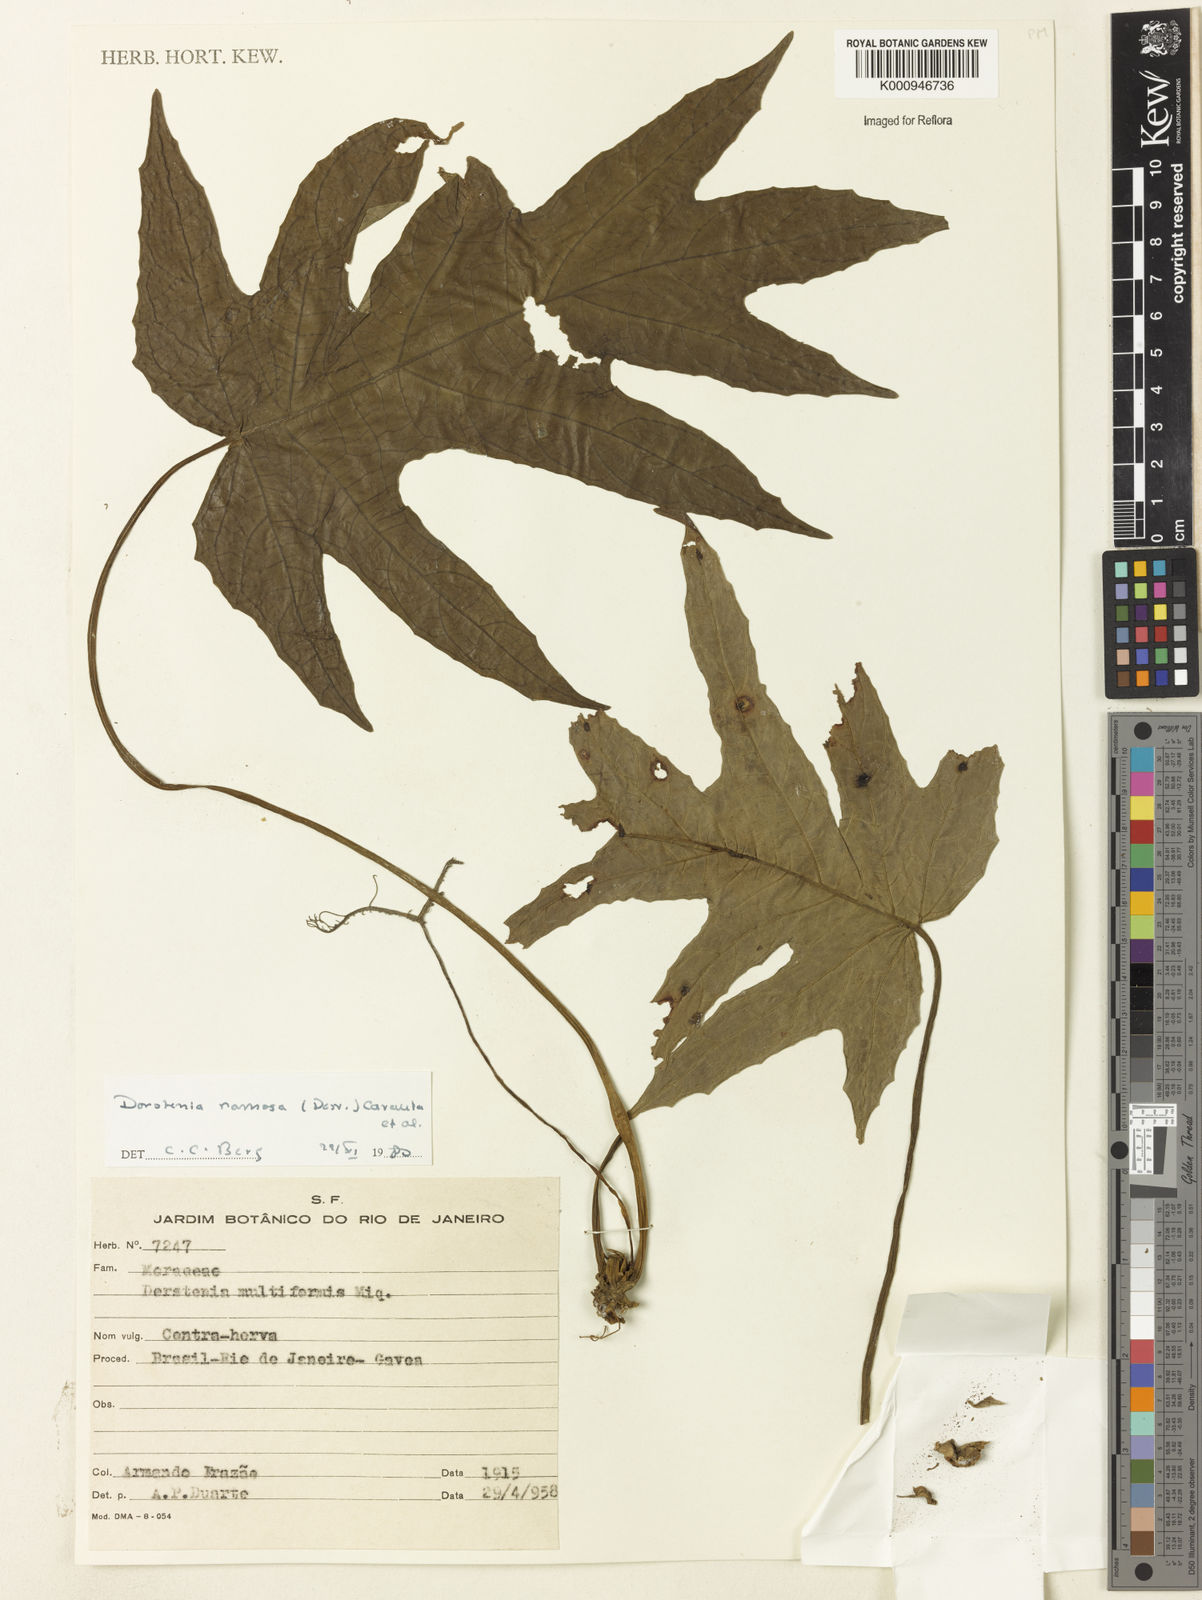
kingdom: Plantae
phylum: Tracheophyta
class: Magnoliopsida
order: Rosales
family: Moraceae
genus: Dorstenia
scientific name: Dorstenia ramosa
